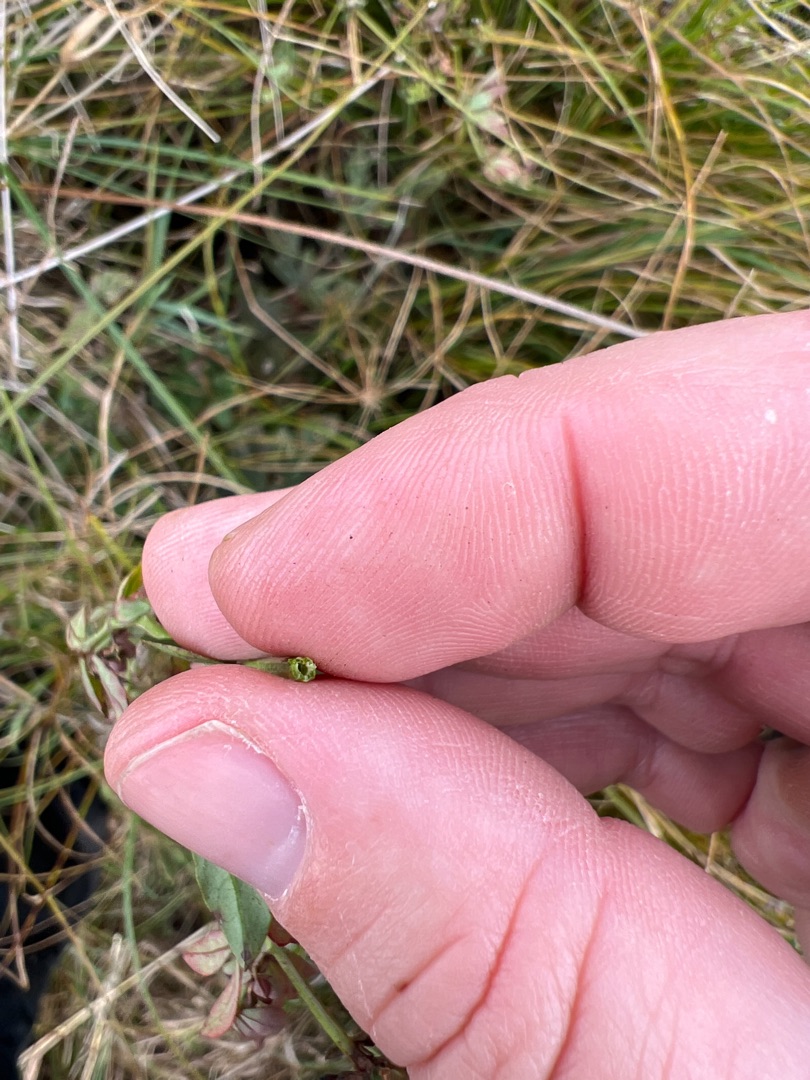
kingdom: Plantae
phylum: Tracheophyta
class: Magnoliopsida
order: Fabales
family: Fabaceae
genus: Lotus
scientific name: Lotus pedunculatus
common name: Sump-kællingetand
